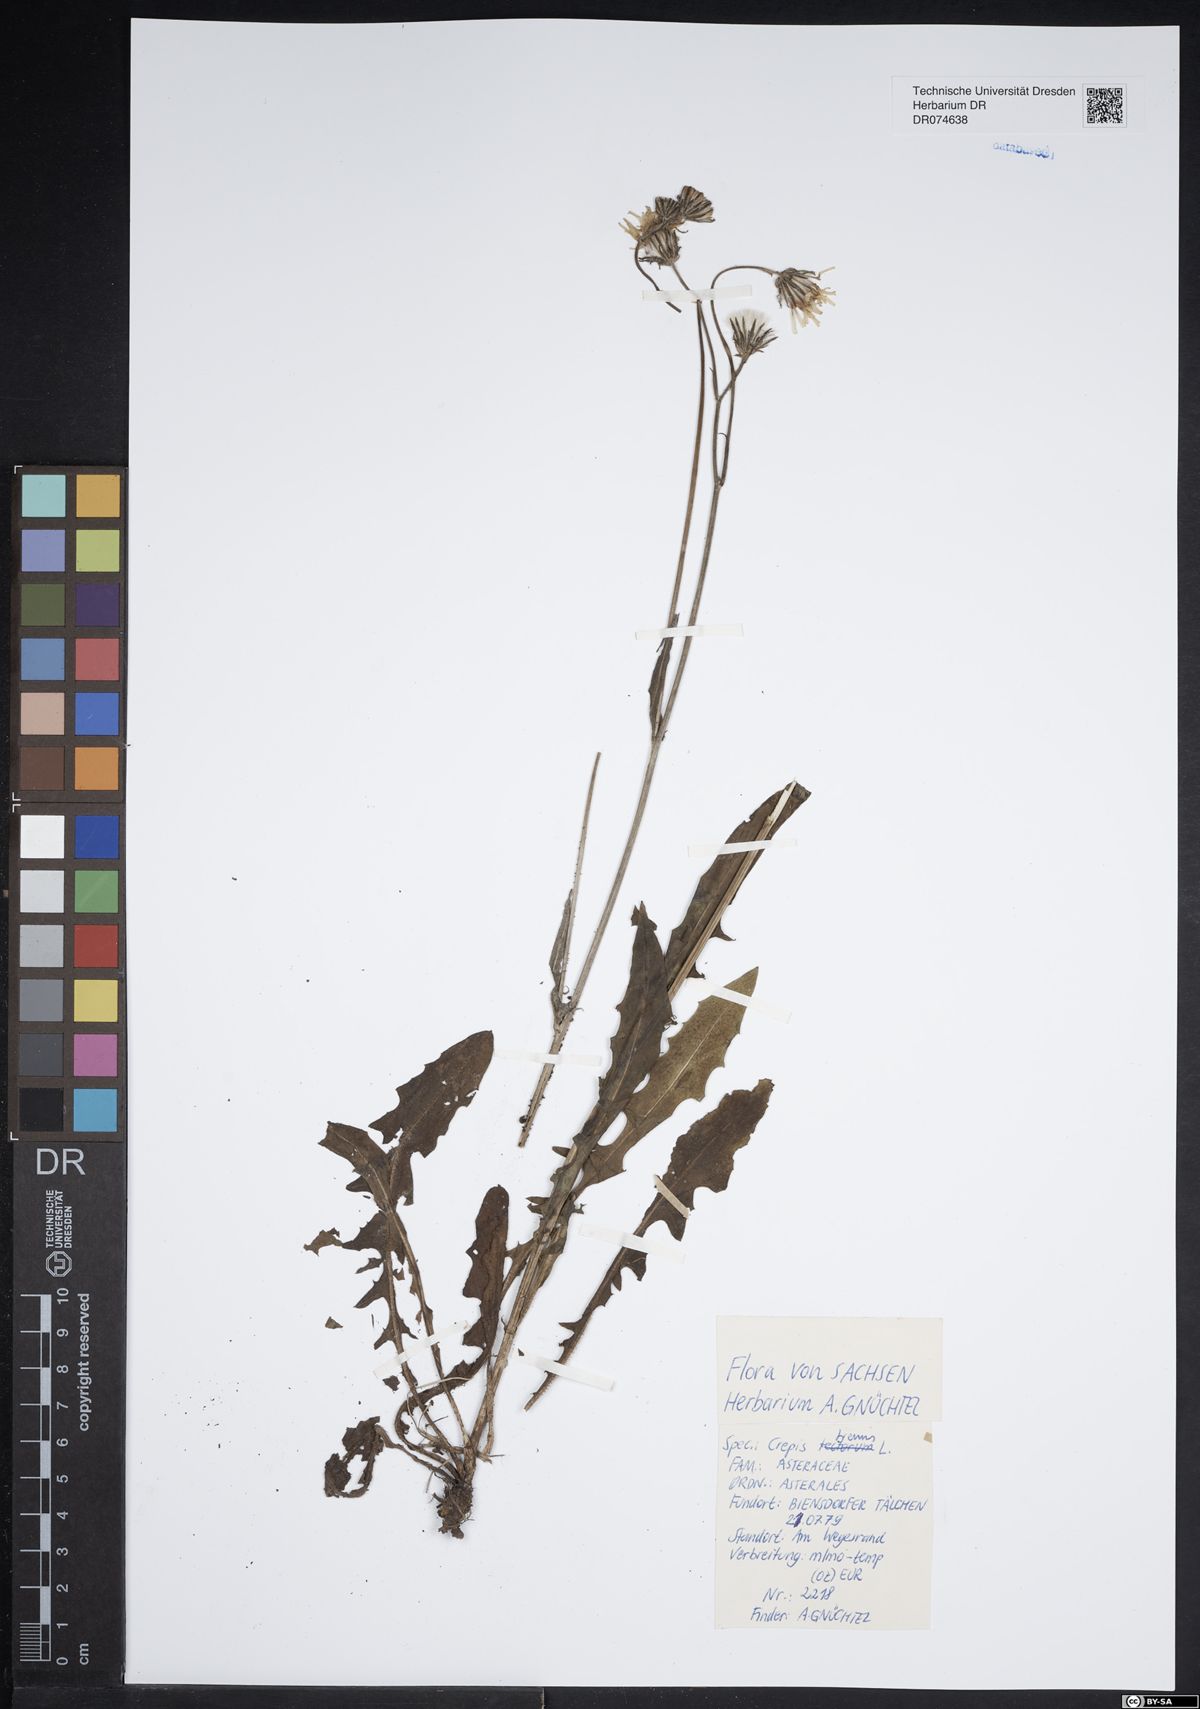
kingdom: Plantae
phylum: Tracheophyta
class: Magnoliopsida
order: Asterales
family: Asteraceae
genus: Crepis
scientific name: Crepis biennis
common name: Rough hawk's-beard
